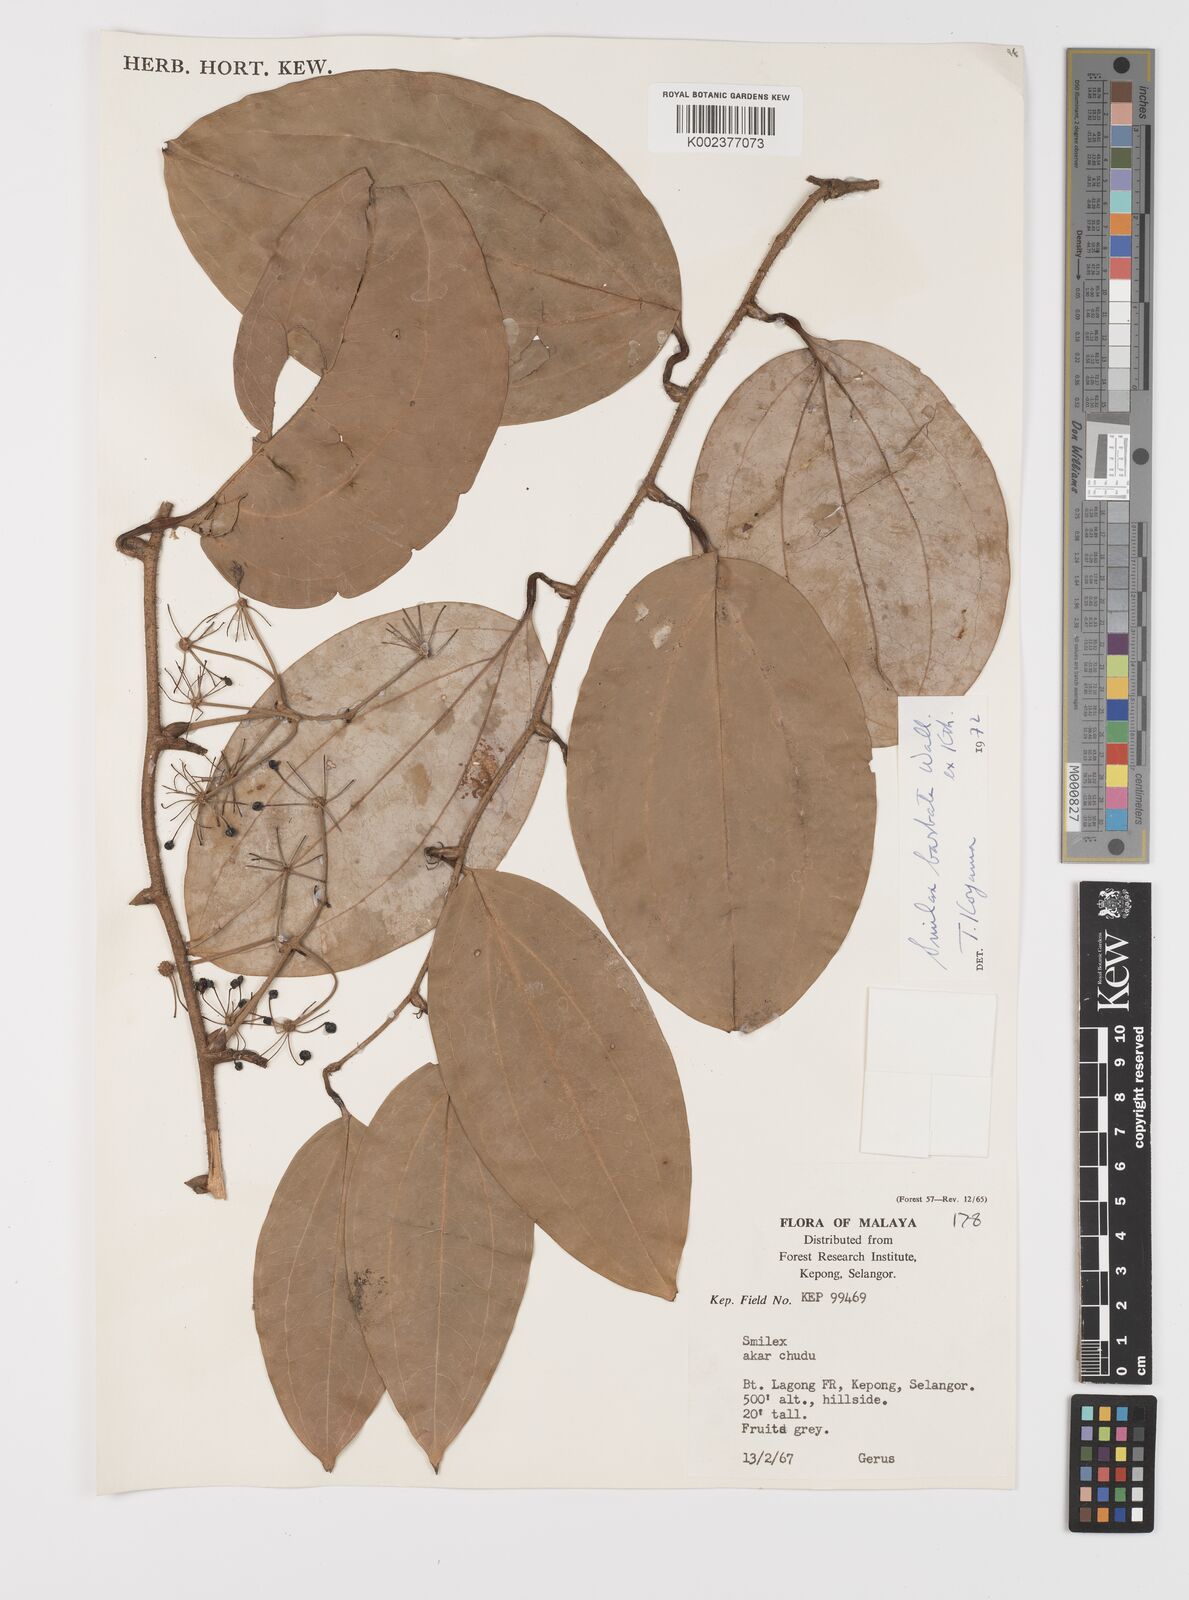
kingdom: Plantae
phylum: Tracheophyta
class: Liliopsida
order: Liliales
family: Smilacaceae
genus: Smilax
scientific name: Smilax bracteata
